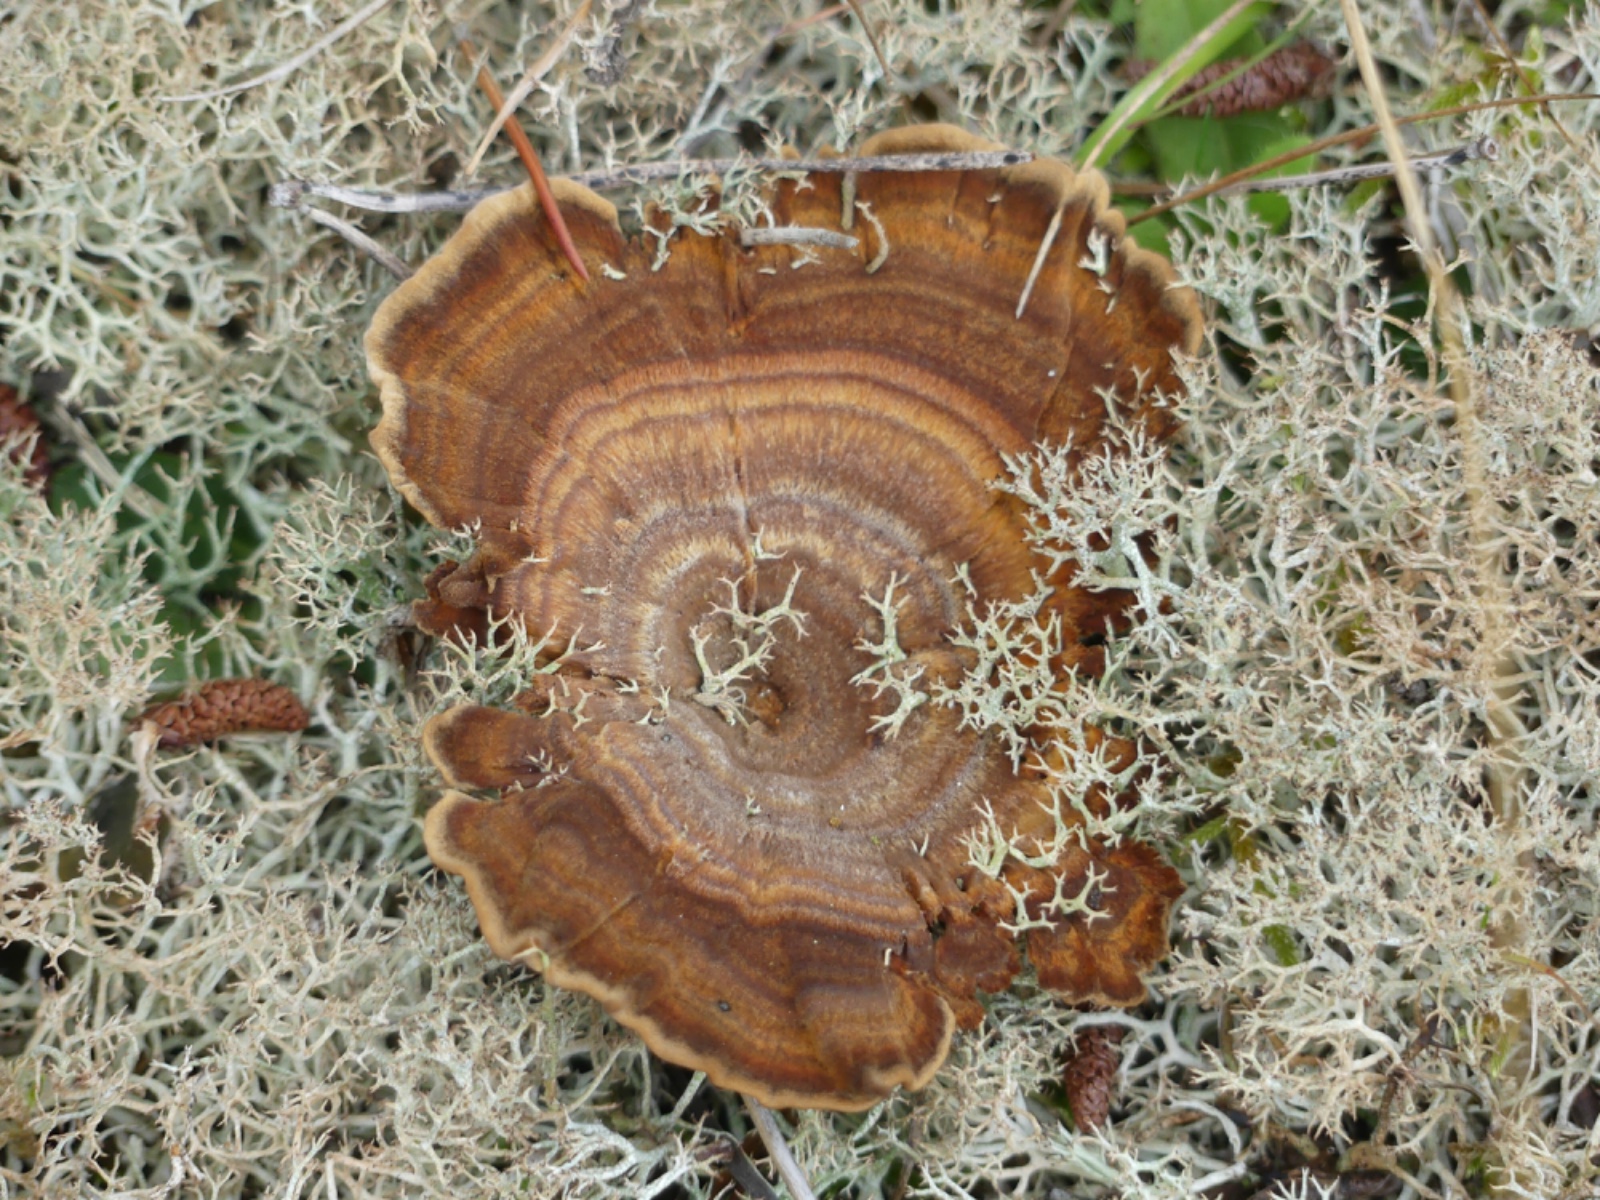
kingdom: Fungi
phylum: Basidiomycota
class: Agaricomycetes
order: Hymenochaetales
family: Hymenochaetaceae
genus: Coltricia
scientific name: Coltricia perennis
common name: almindelig sandporesvamp
